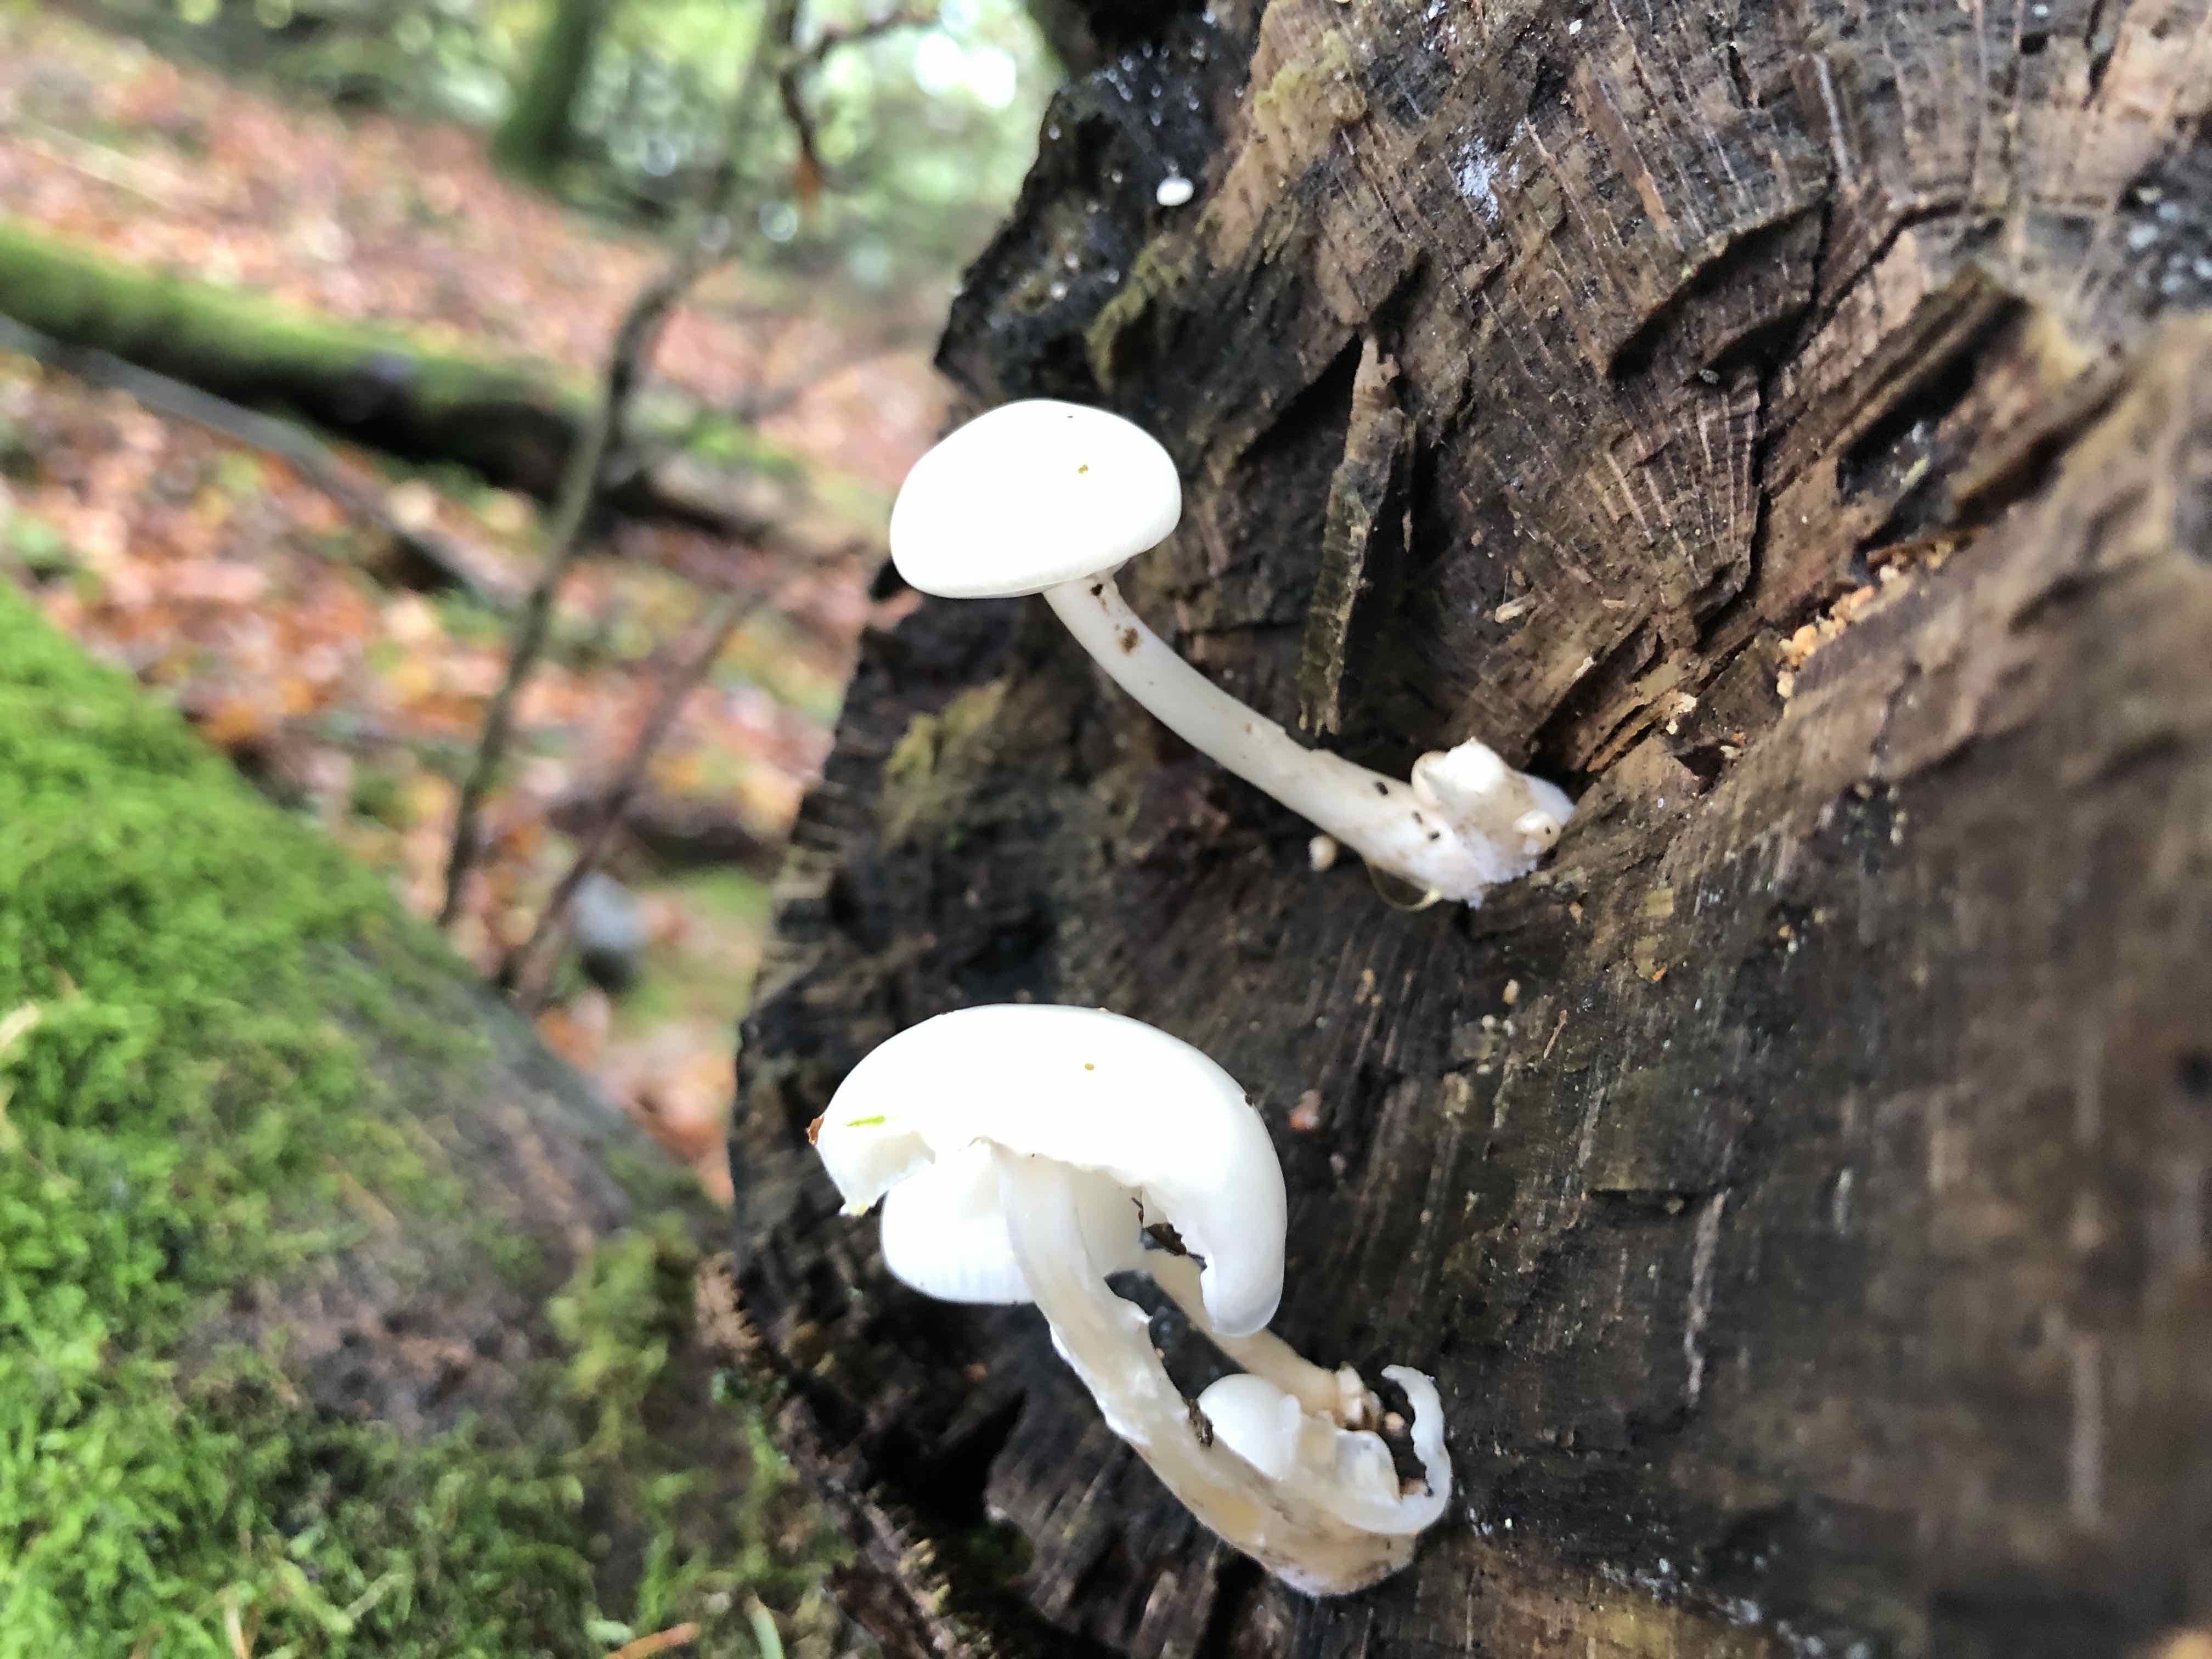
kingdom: Fungi
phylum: Basidiomycota
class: Agaricomycetes
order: Agaricales
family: Physalacriaceae
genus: Mucidula
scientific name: Mucidula mucida
